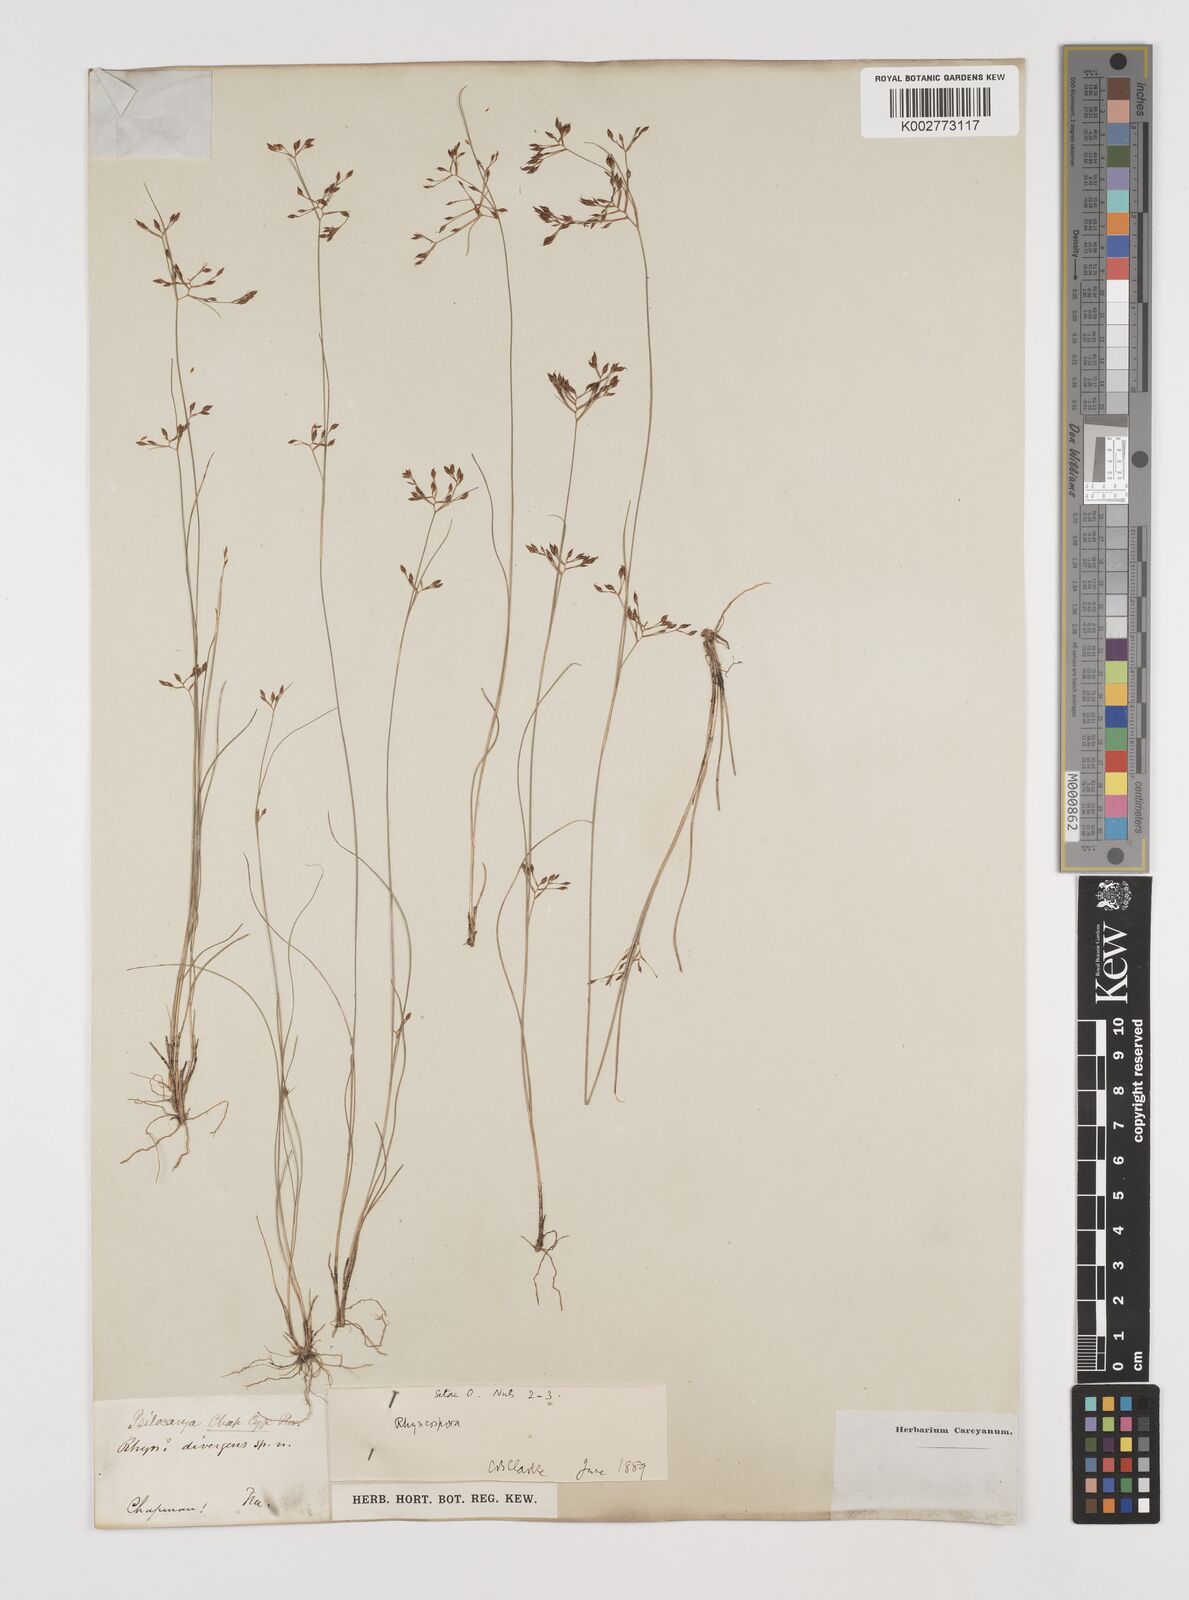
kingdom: Plantae
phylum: Tracheophyta
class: Liliopsida
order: Poales
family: Cyperaceae
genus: Rhynchospora
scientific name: Rhynchospora
